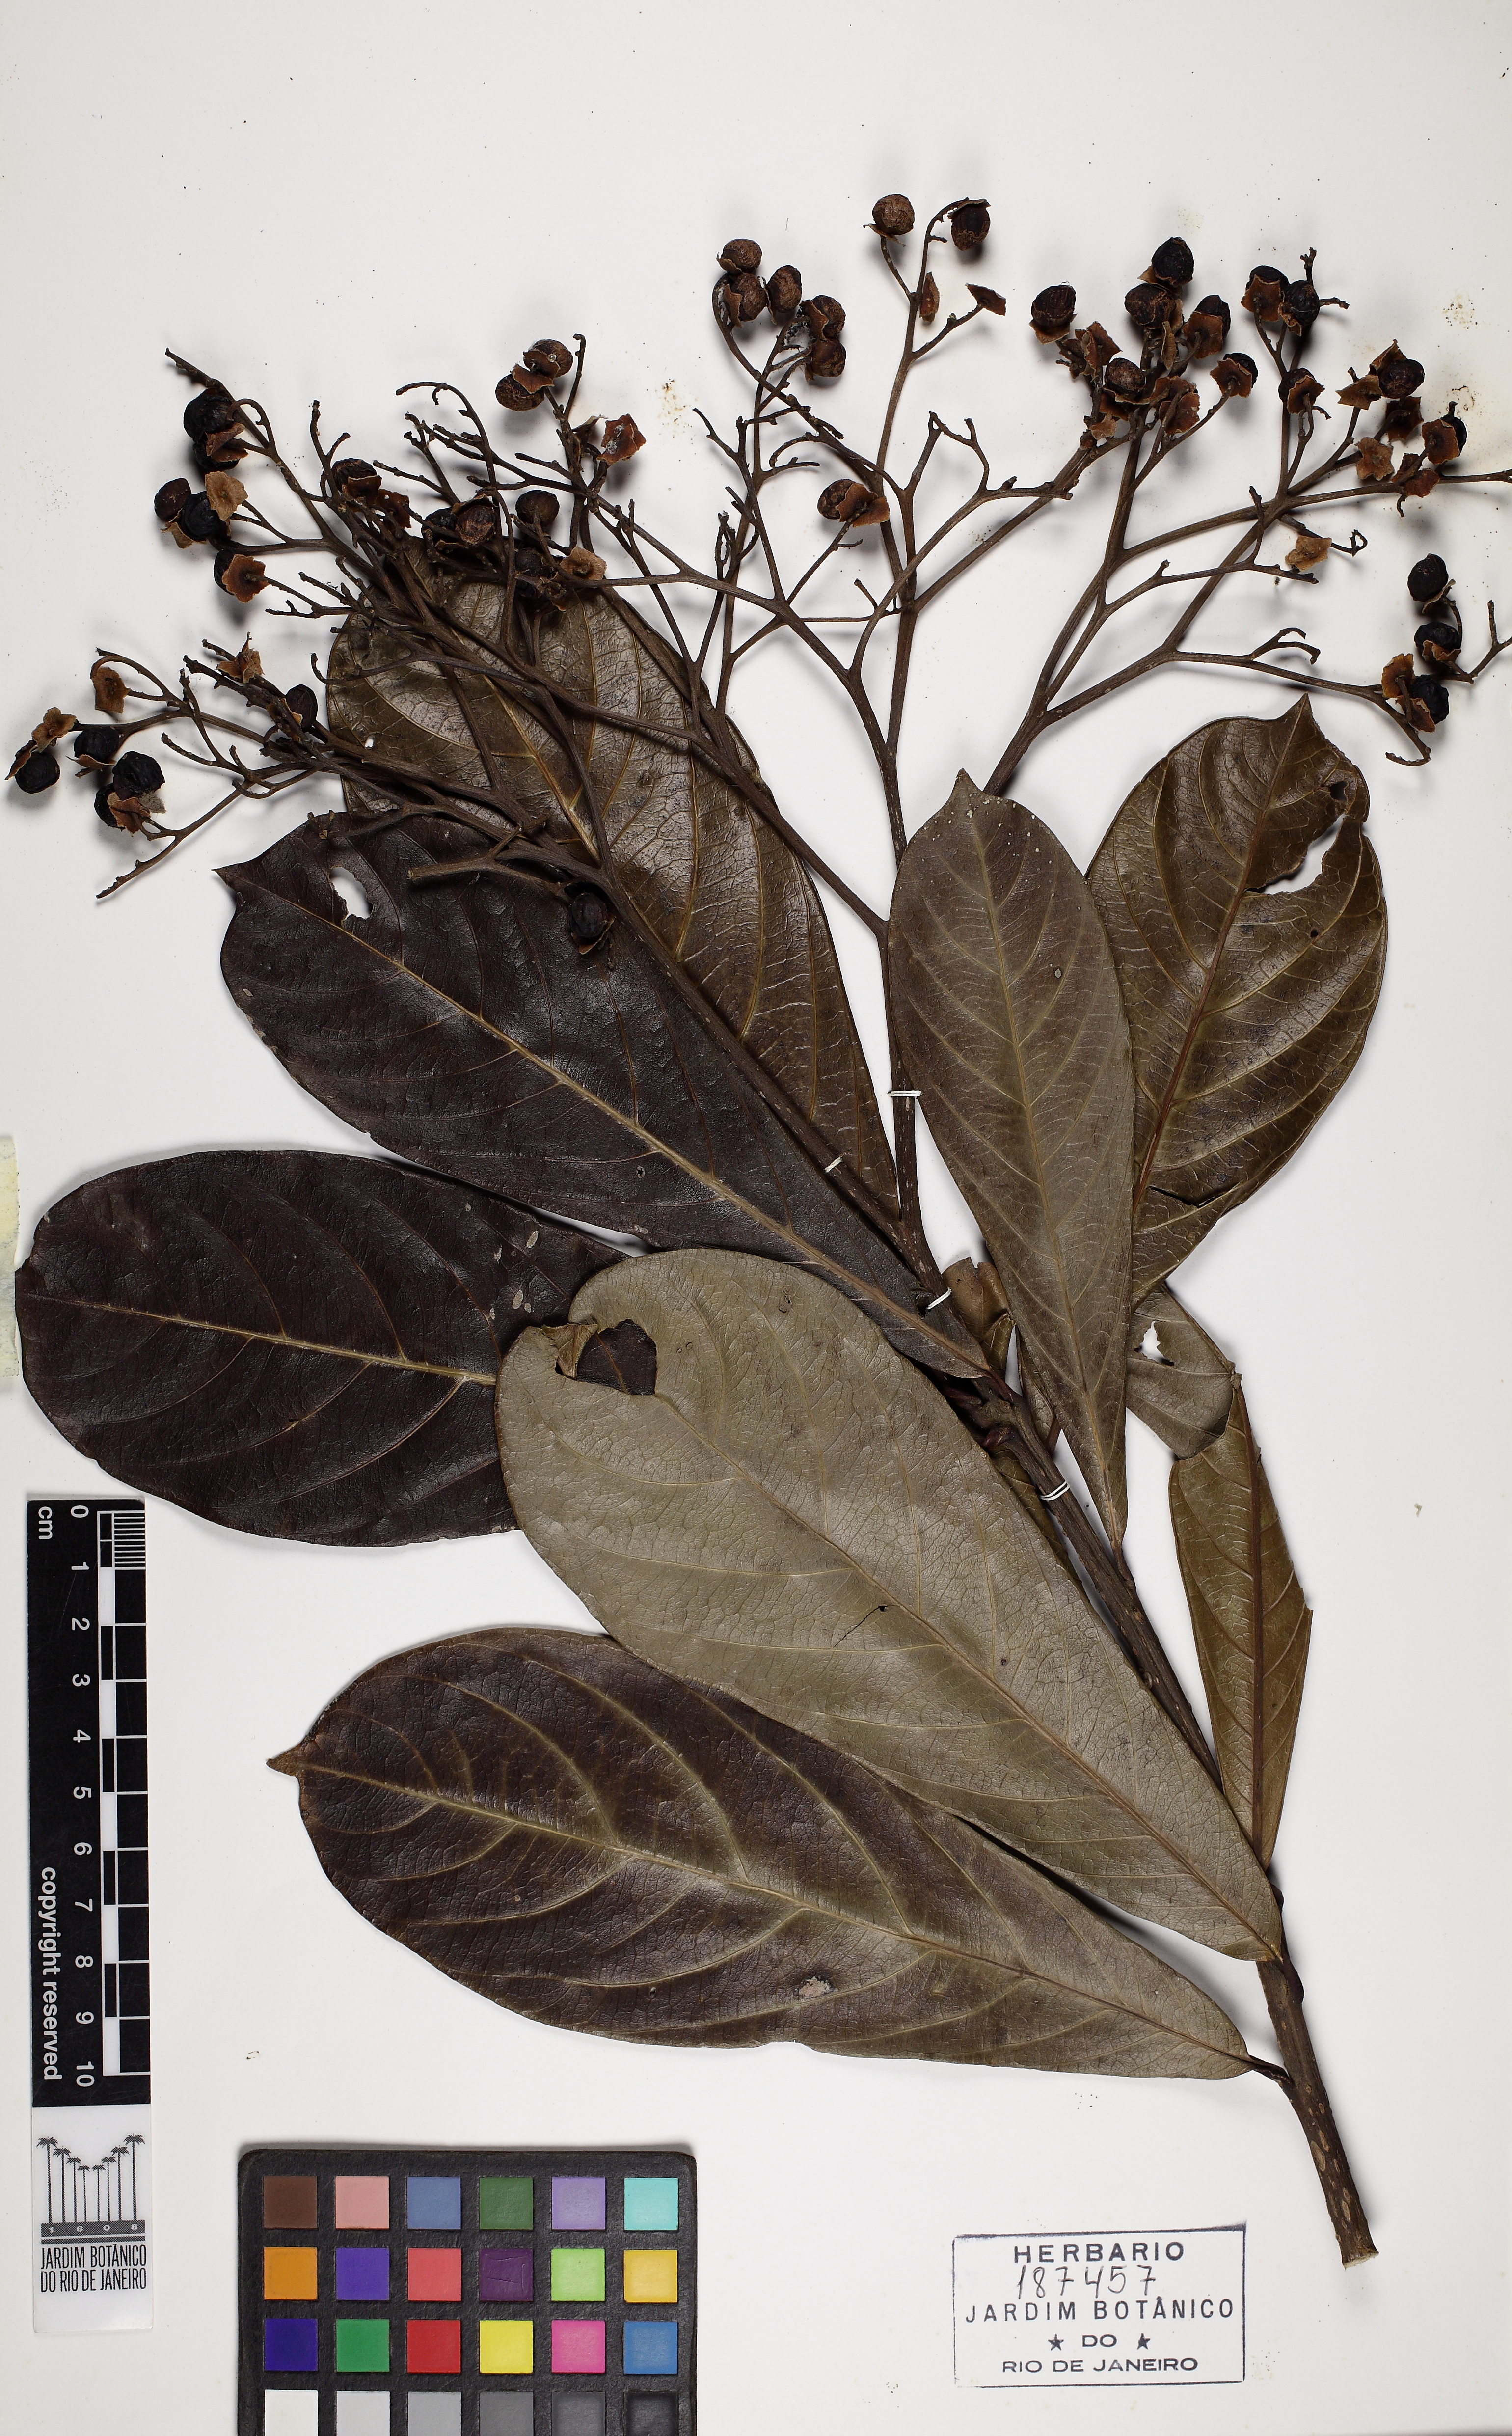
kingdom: Plantae
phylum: Tracheophyta
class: Magnoliopsida
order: Boraginales
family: Cordiaceae
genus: Cordia
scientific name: Cordia magnoliifolia
